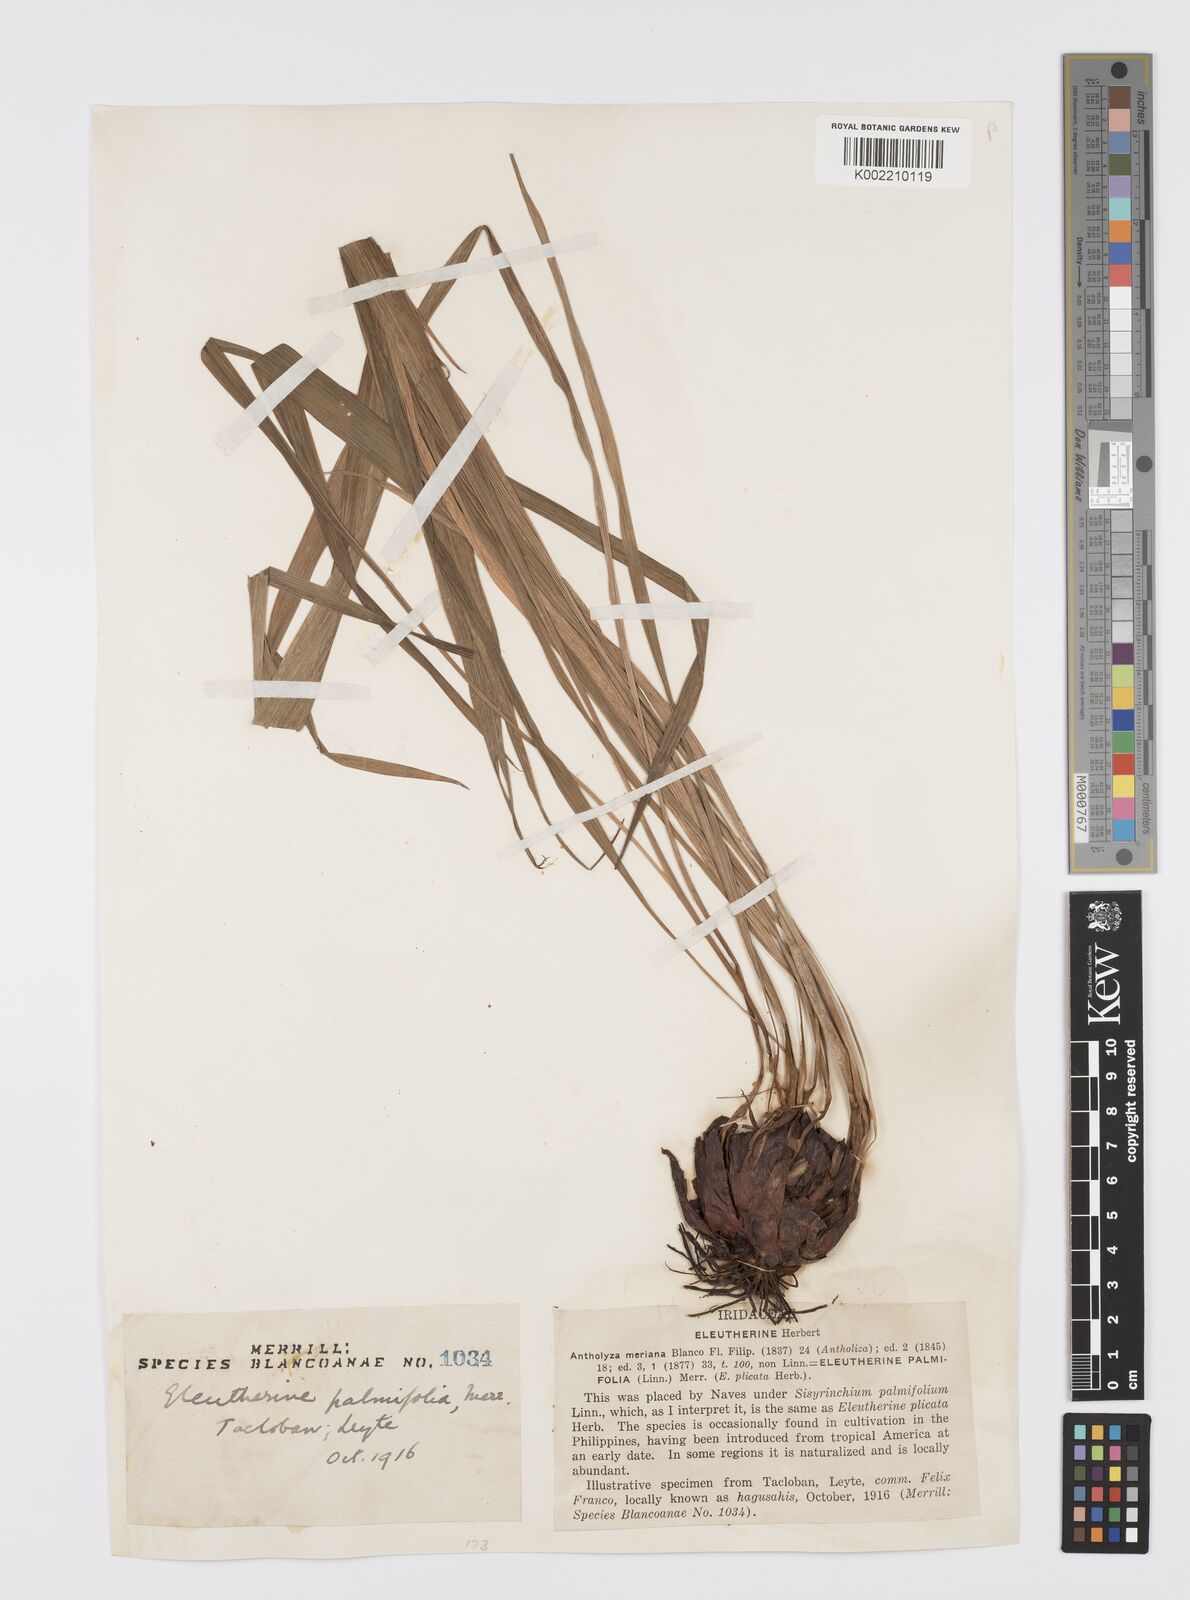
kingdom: Plantae
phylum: Tracheophyta
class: Liliopsida
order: Asparagales
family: Iridaceae
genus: Sisyrinchium
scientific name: Sisyrinchium palmifolium
